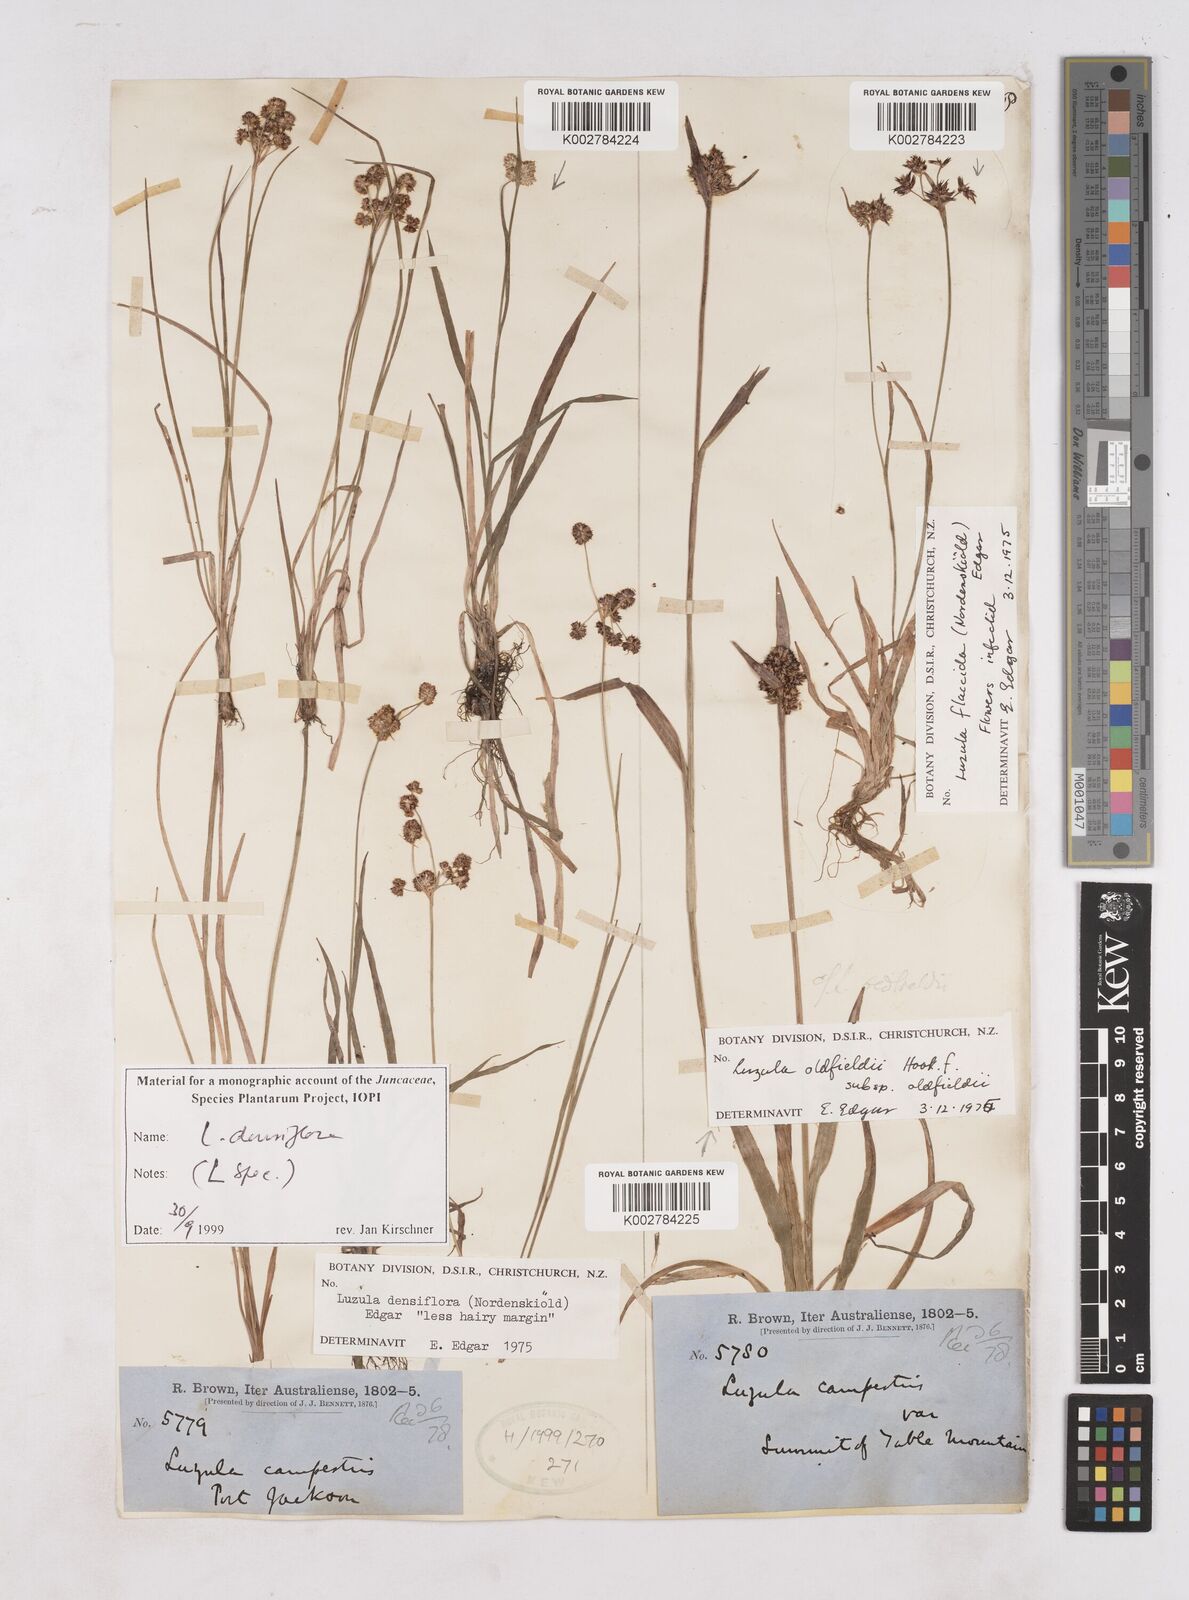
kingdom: Plantae
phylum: Tracheophyta
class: Liliopsida
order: Poales
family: Juncaceae
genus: Luzula
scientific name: Luzula densiflora
